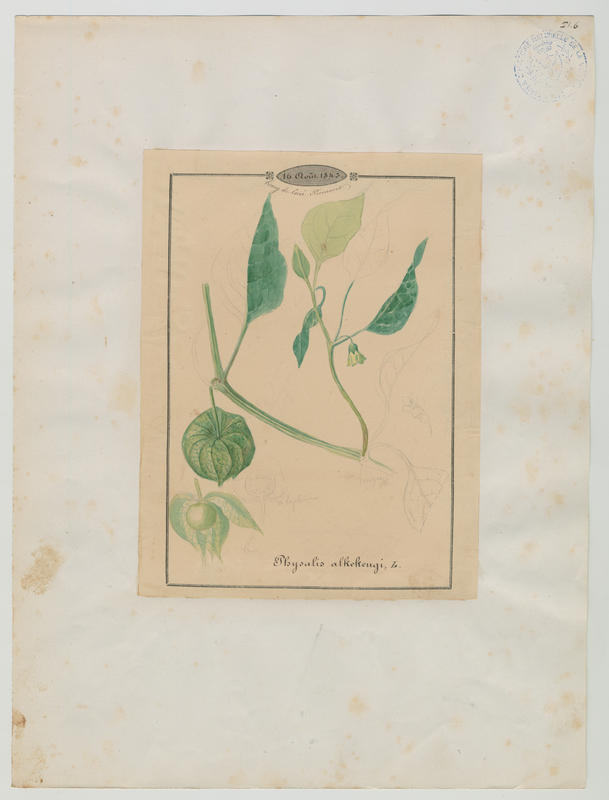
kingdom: Plantae
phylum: Tracheophyta
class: Magnoliopsida
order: Solanales
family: Solanaceae
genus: Alkekengi
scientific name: Alkekengi officinarum
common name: Japanese-lantern
